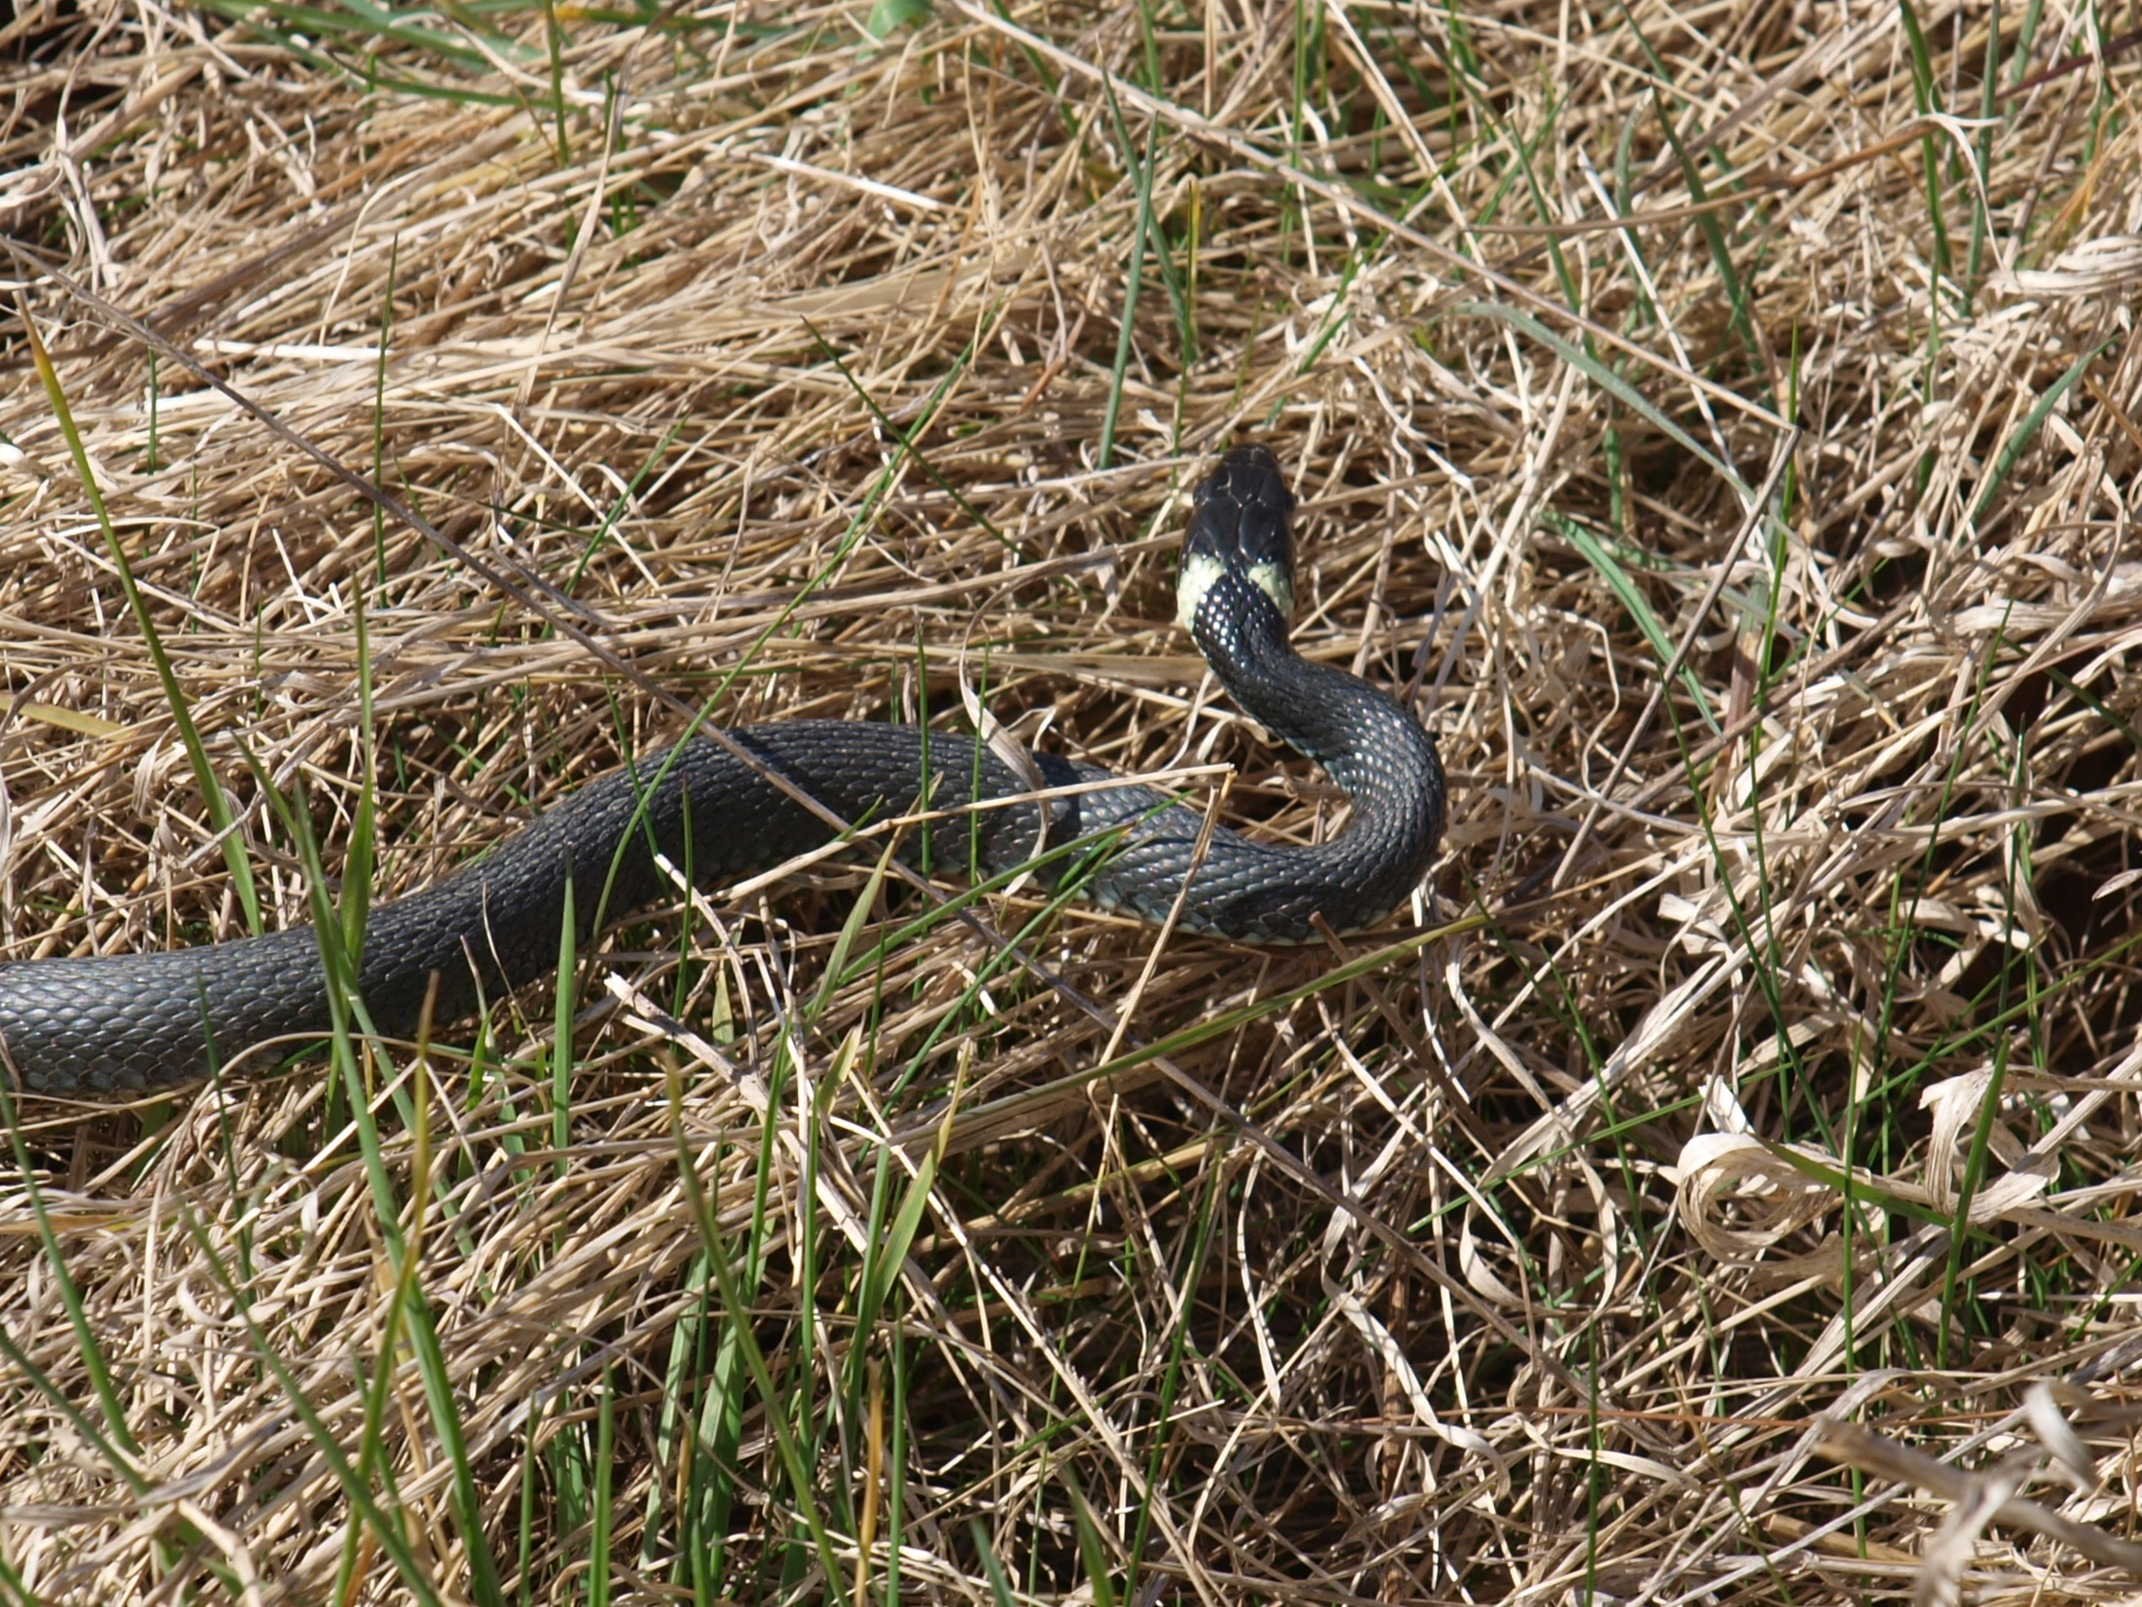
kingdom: Animalia
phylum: Chordata
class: Squamata
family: Colubridae
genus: Natrix
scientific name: Natrix natrix
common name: Snog
